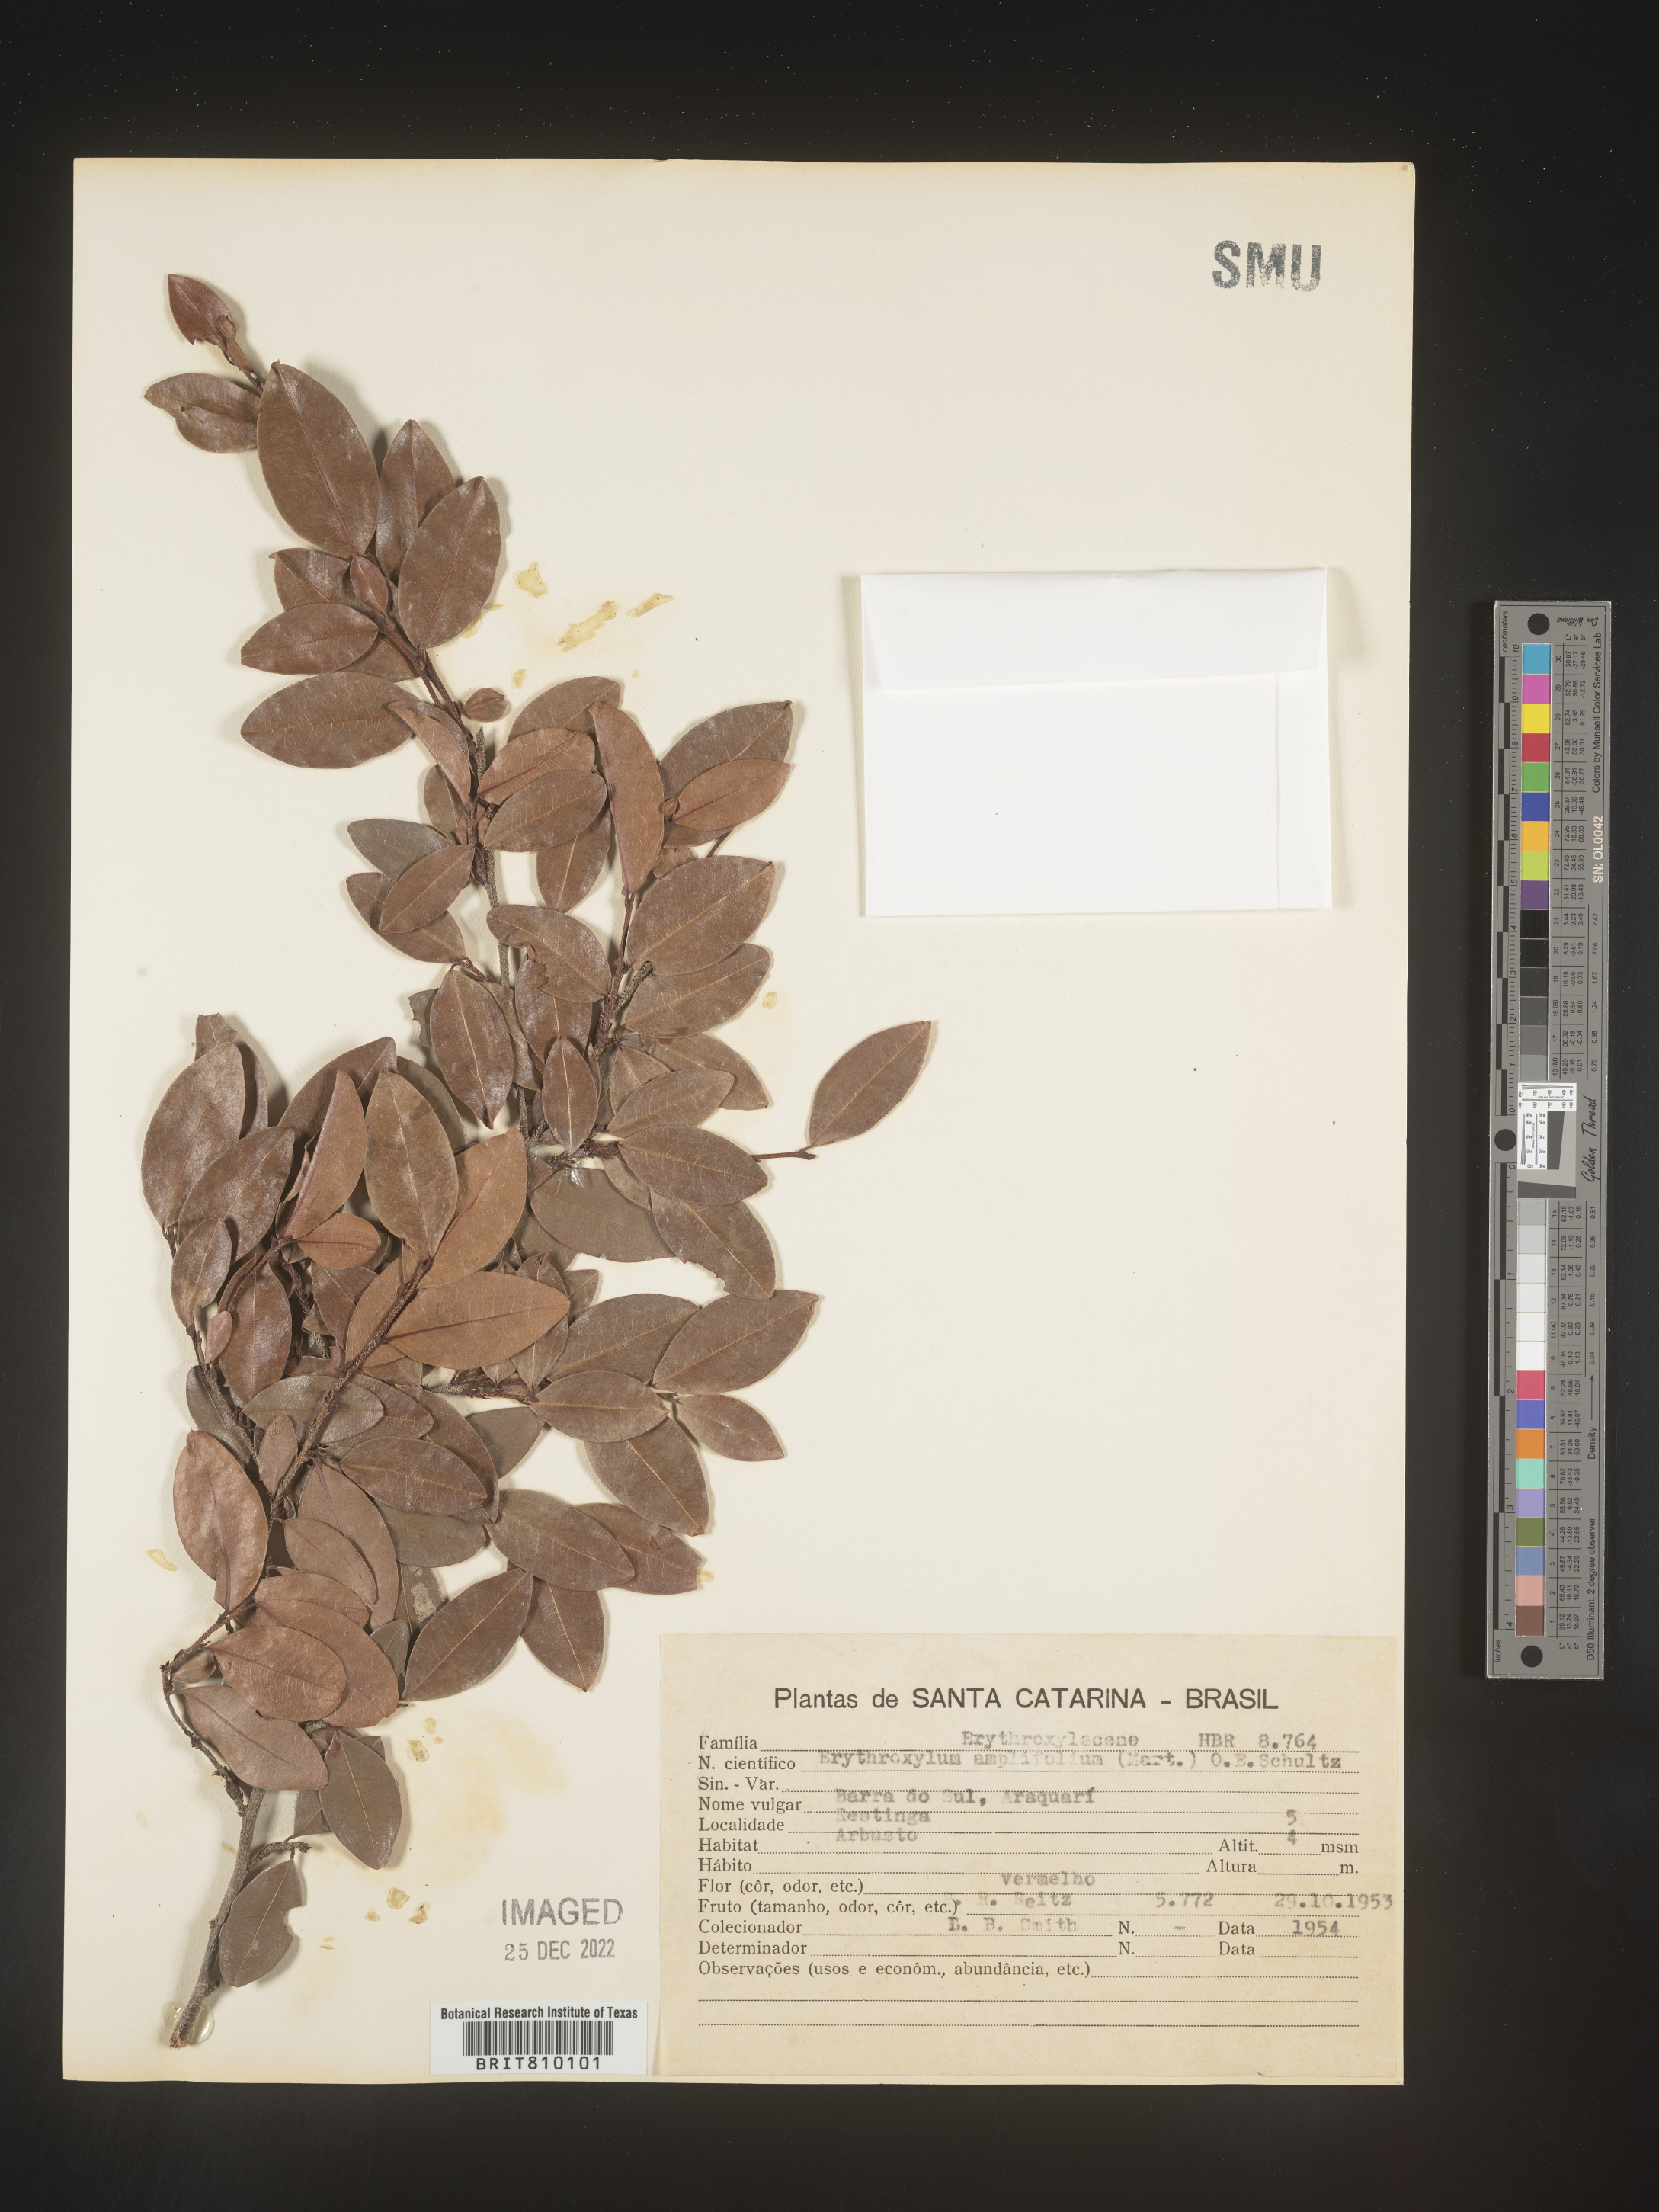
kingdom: Plantae
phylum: Tracheophyta
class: Magnoliopsida
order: Malpighiales
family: Erythroxylaceae
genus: Erythroxylum
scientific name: Erythroxylum
